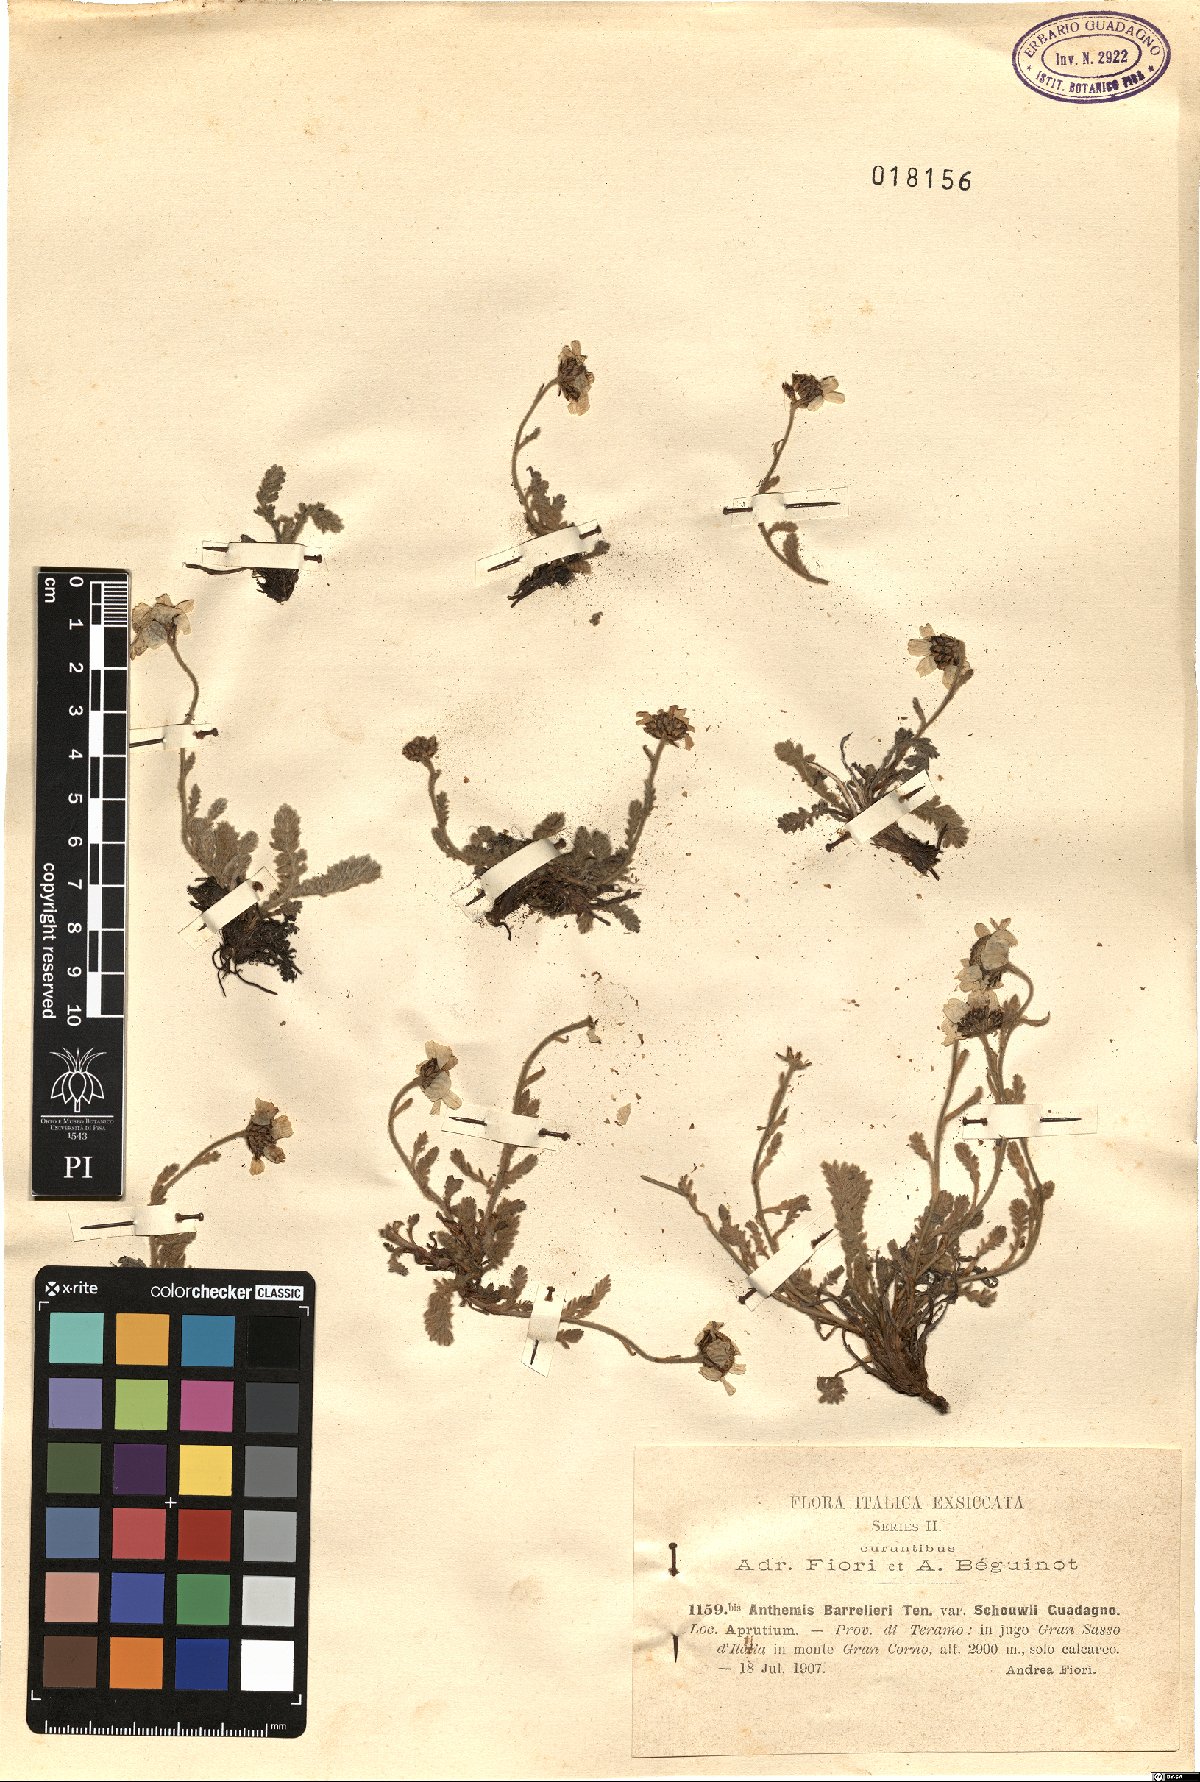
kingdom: Plantae
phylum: Tracheophyta
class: Magnoliopsida
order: Asterales
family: Asteraceae
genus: Achillea
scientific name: Achillea barrelieri
